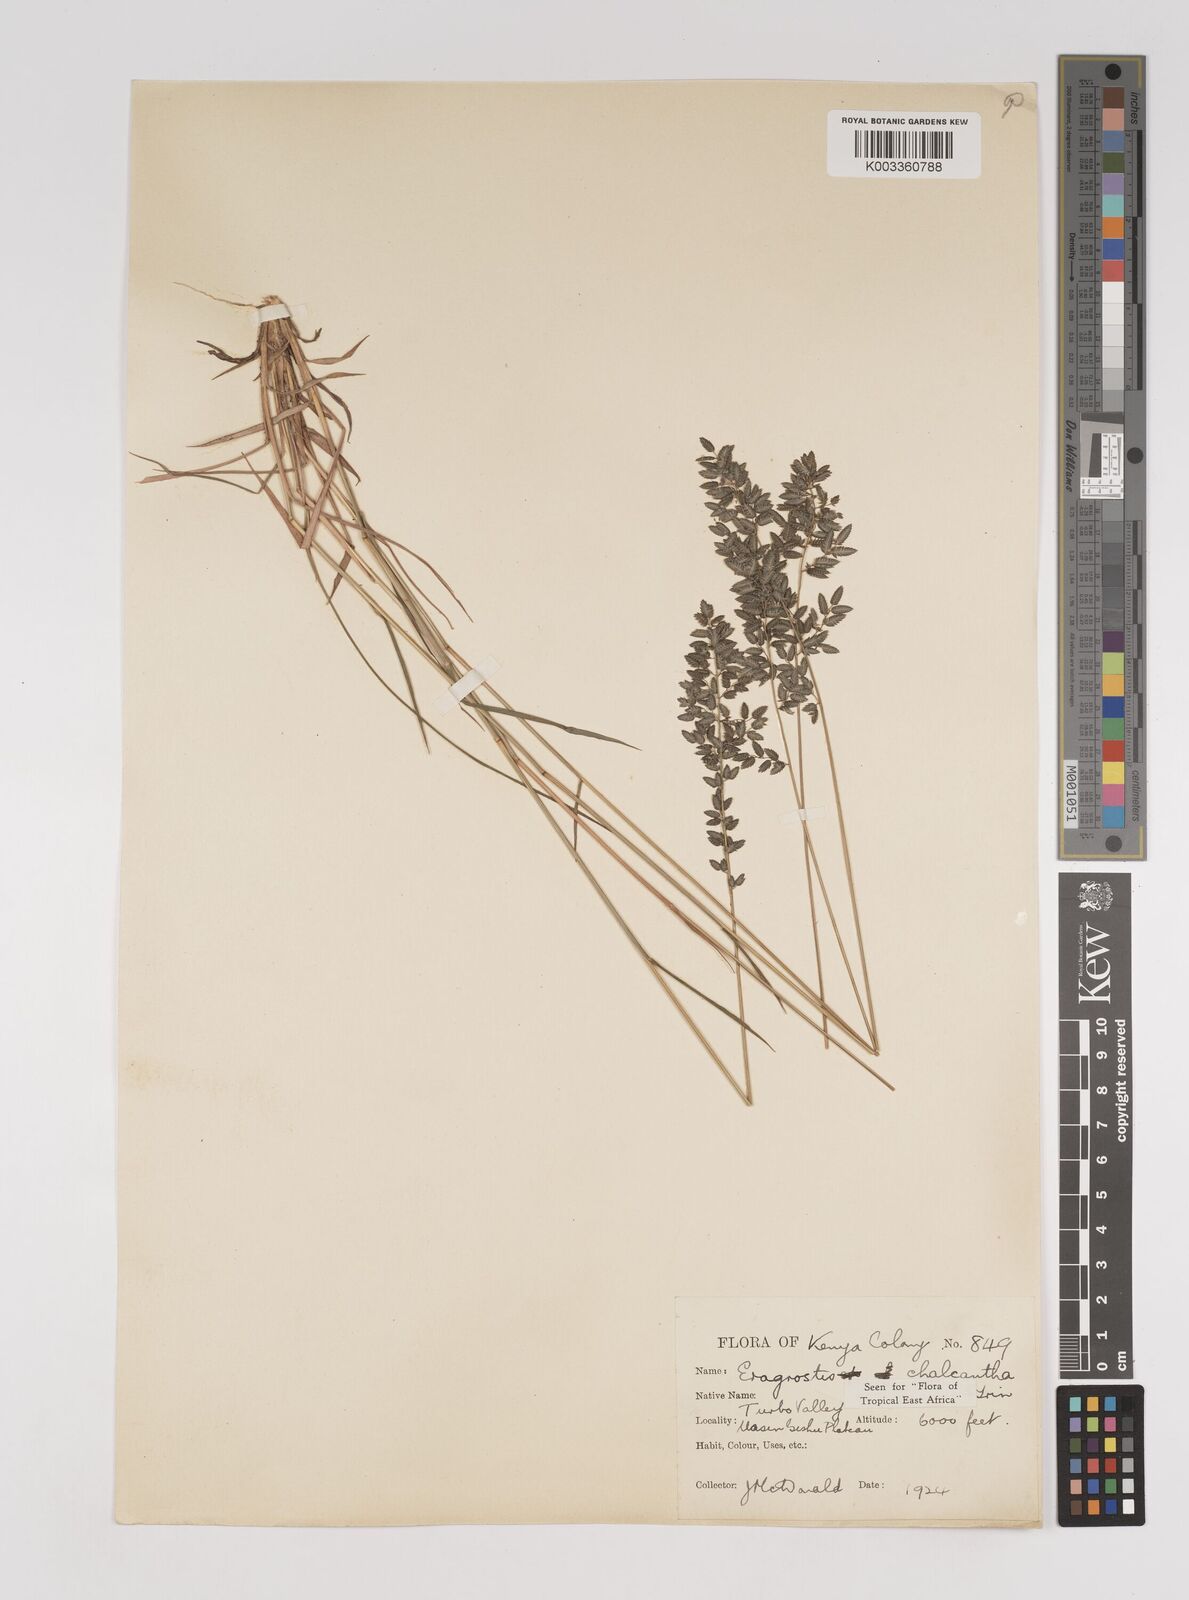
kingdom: Plantae
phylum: Tracheophyta
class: Liliopsida
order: Poales
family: Poaceae
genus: Eragrostis
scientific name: Eragrostis racemosa
